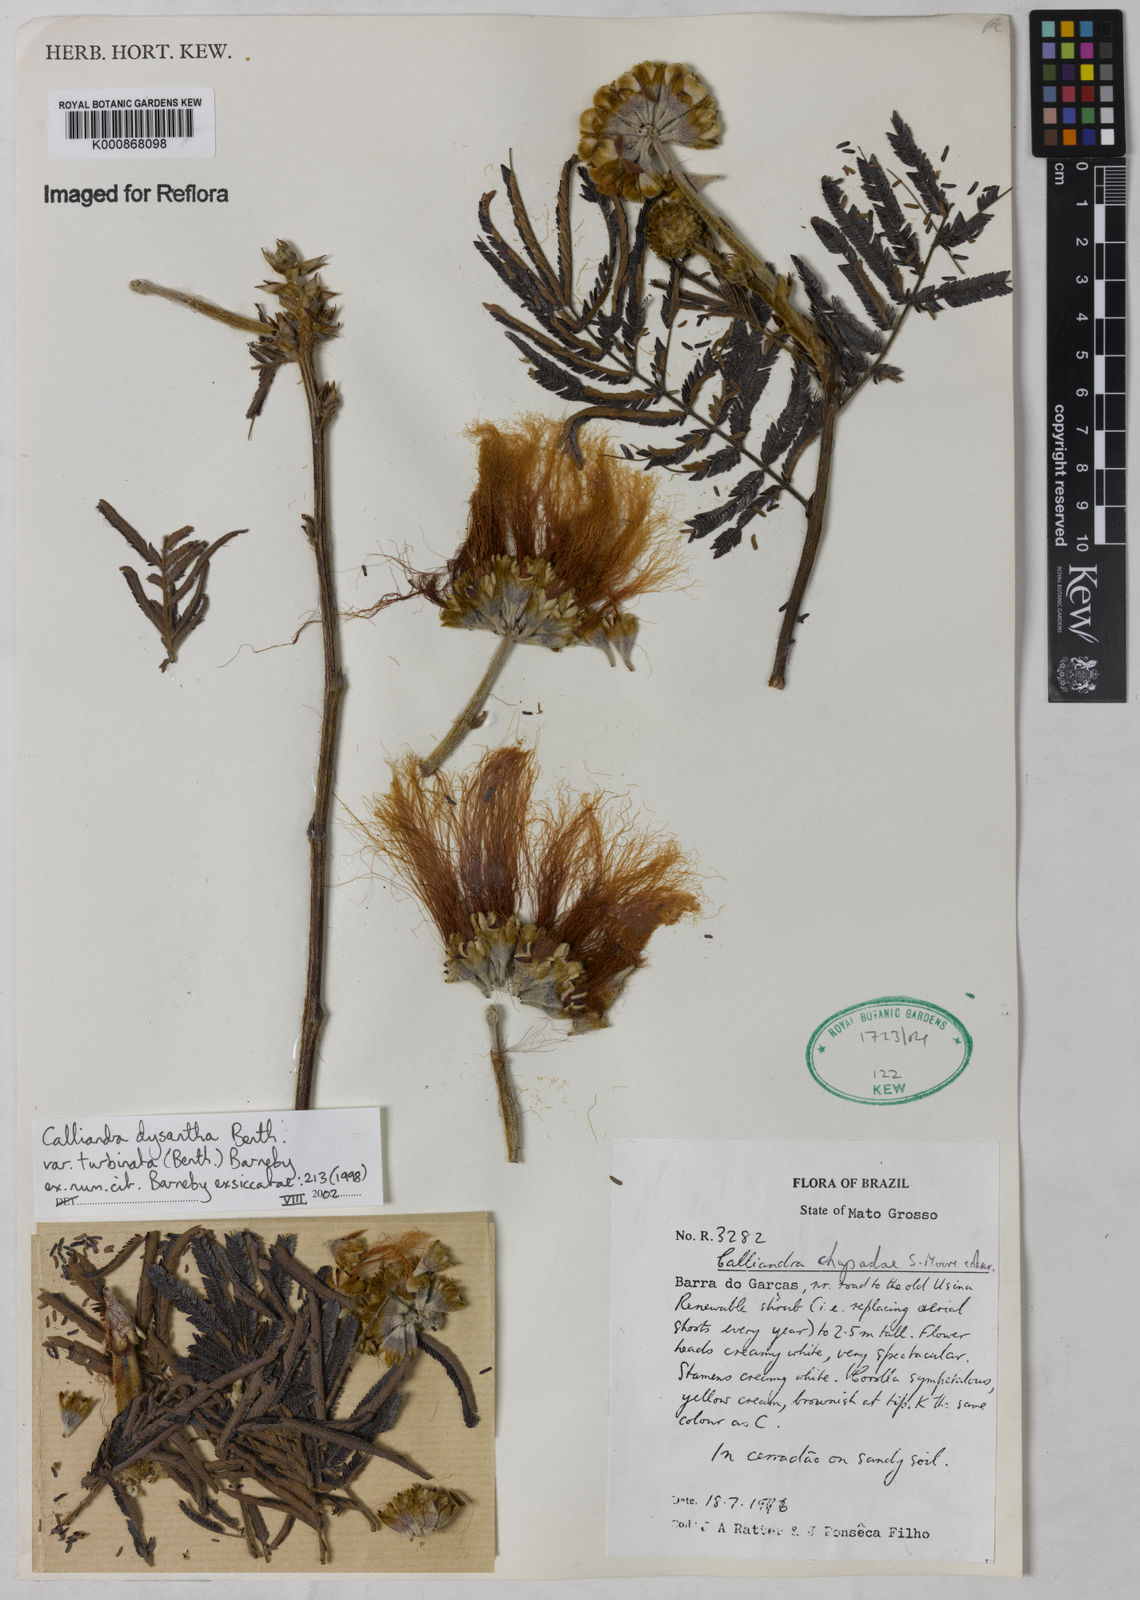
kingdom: Plantae
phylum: Tracheophyta
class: Magnoliopsida
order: Fabales
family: Fabaceae
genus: Calliandra
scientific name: Calliandra dysantha
